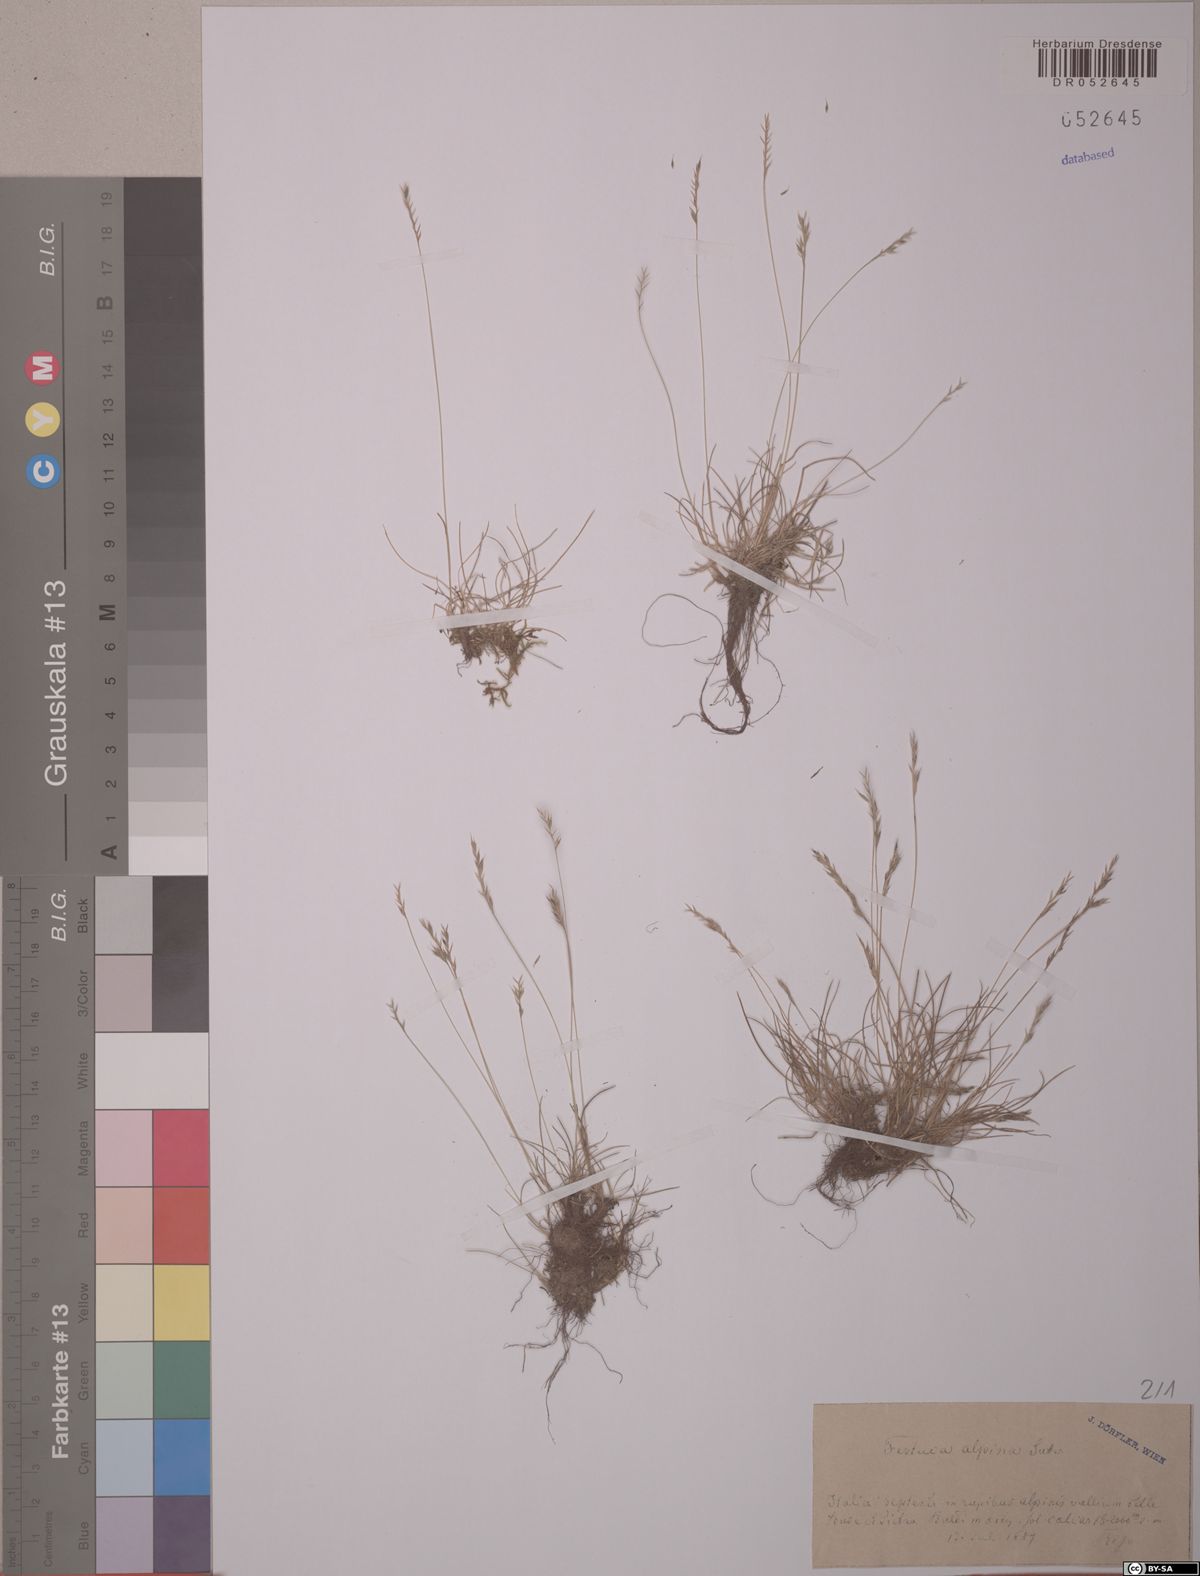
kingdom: Plantae
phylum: Tracheophyta
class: Liliopsida
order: Poales
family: Poaceae
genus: Festuca
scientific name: Festuca alpina
